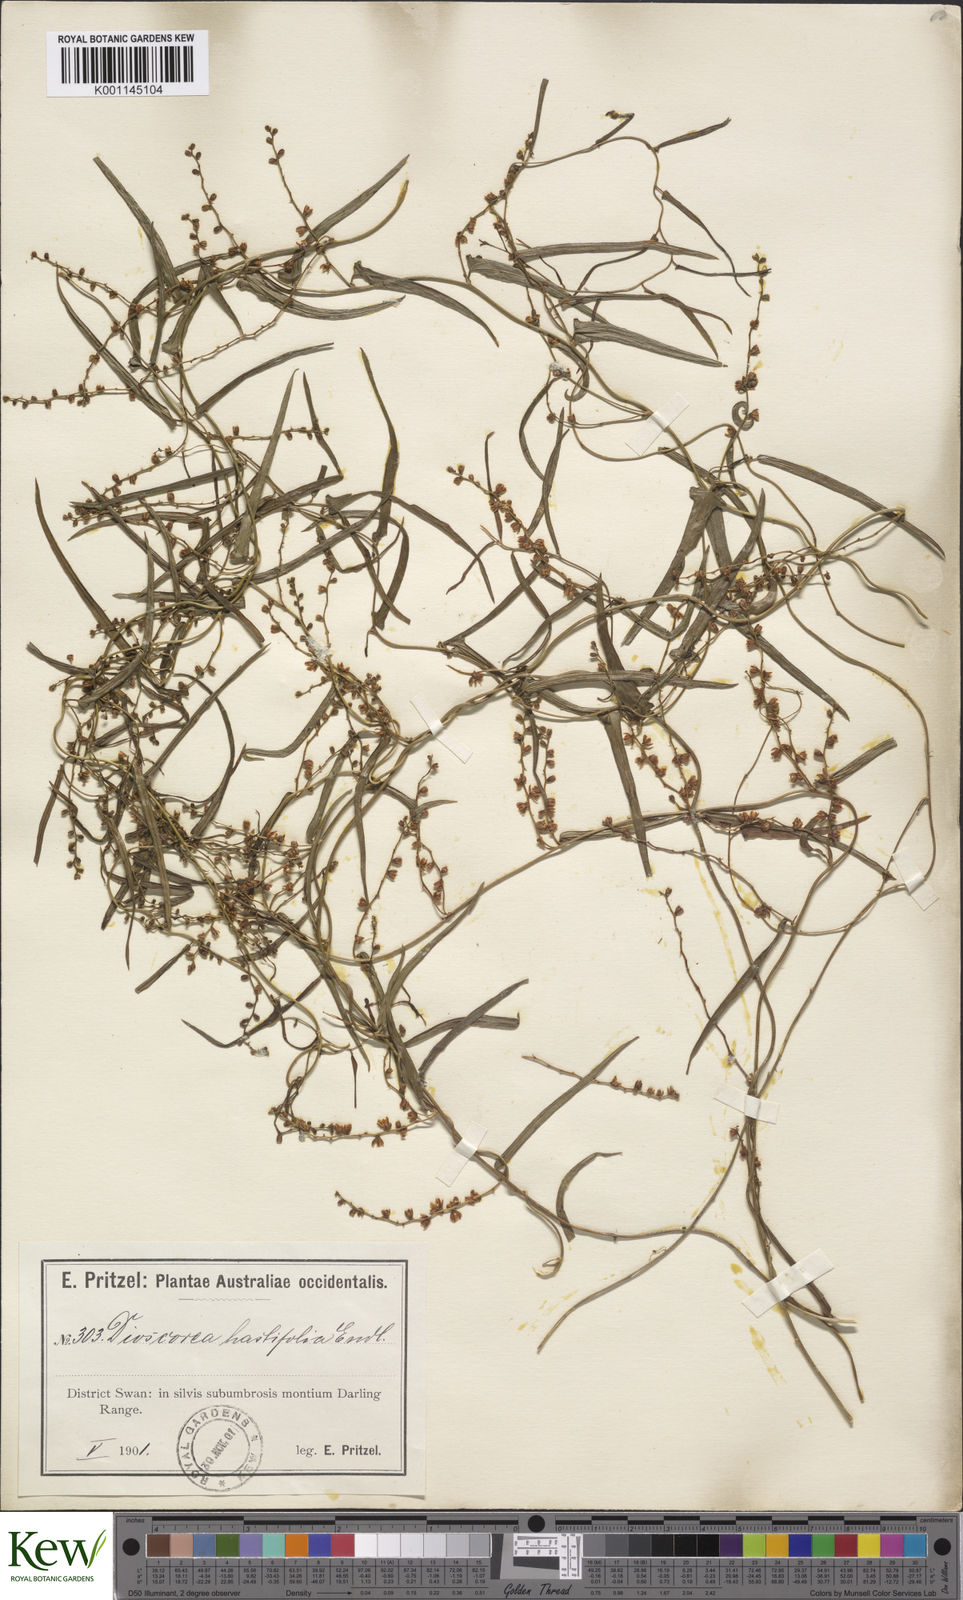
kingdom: Plantae
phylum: Tracheophyta
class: Liliopsida
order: Dioscoreales
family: Dioscoreaceae
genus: Dioscorea
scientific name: Dioscorea hastifolia
